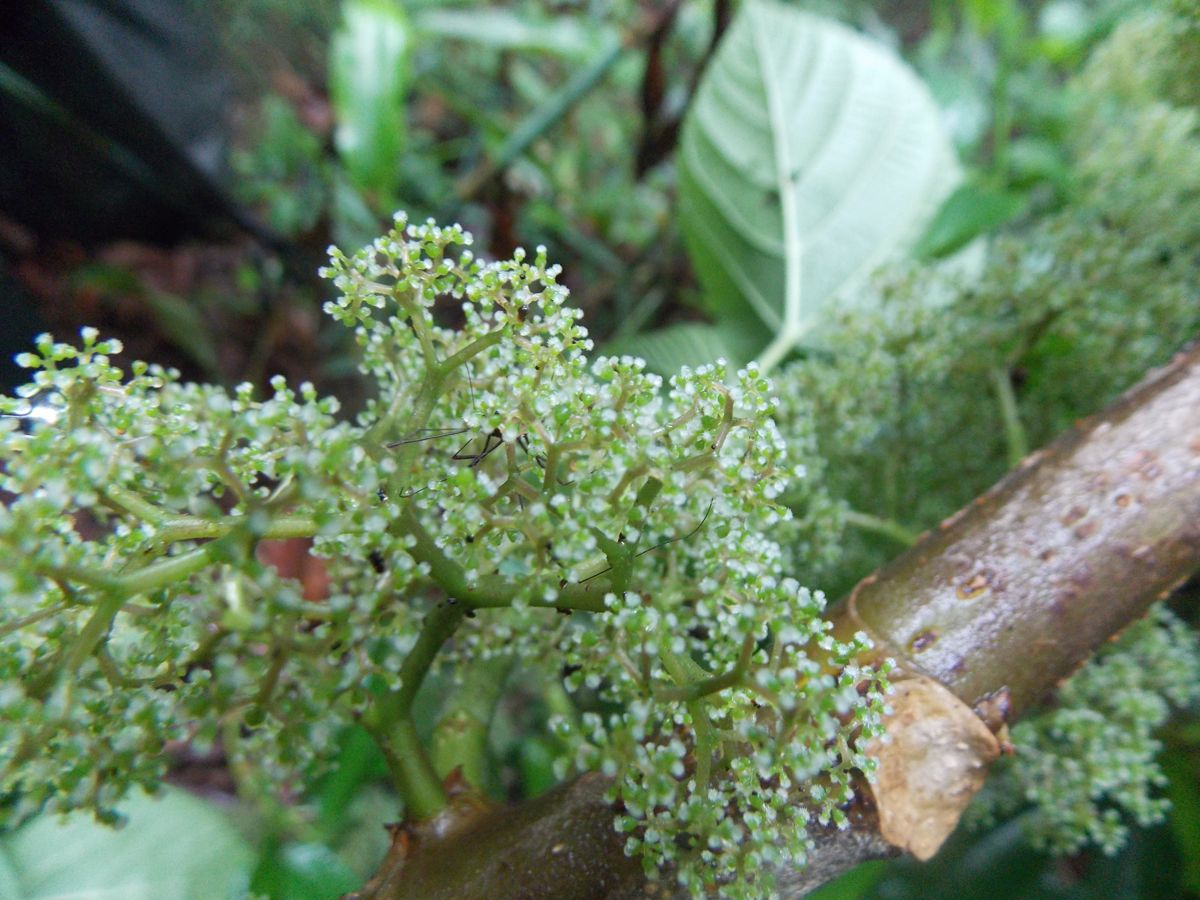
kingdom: Plantae
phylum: Tracheophyta
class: Magnoliopsida
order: Rosales
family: Urticaceae
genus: Urera
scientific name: Urera caracasana
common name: Flameberry
